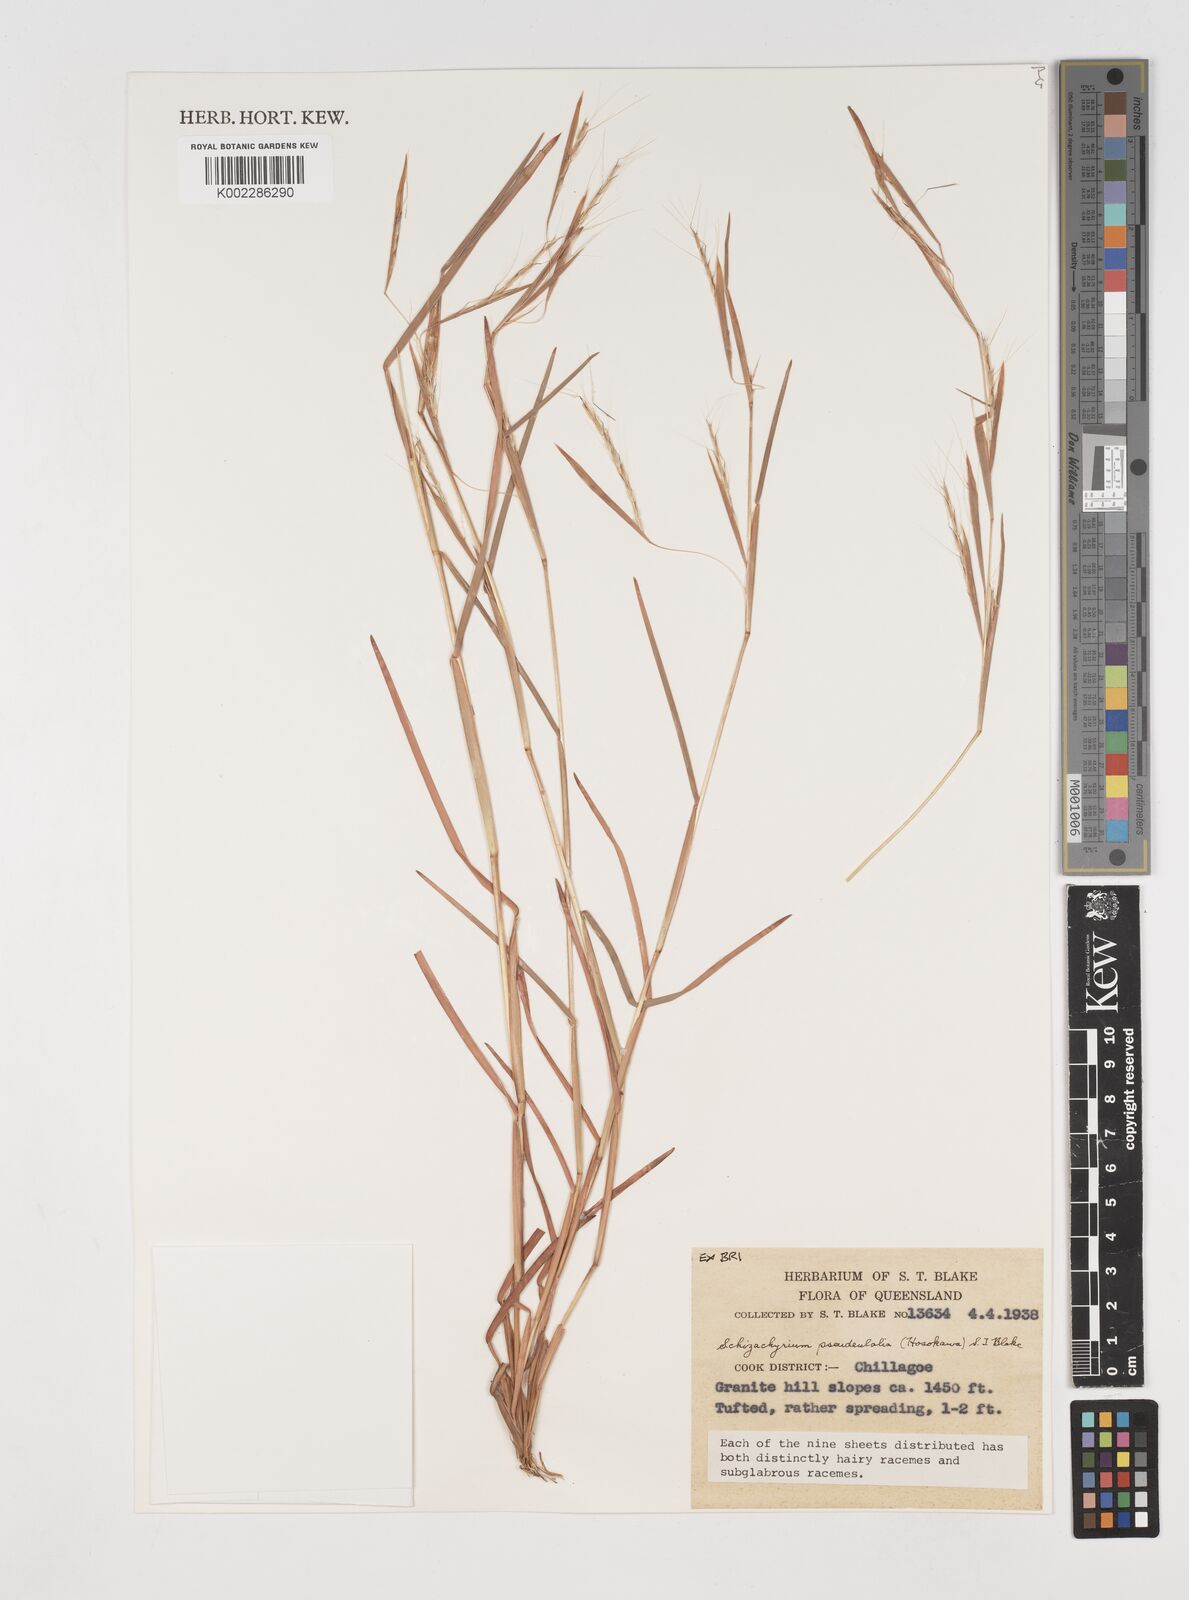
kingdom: Plantae
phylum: Tracheophyta
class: Liliopsida
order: Poales
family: Poaceae
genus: Schizachyrium
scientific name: Schizachyrium pseudeulalia
